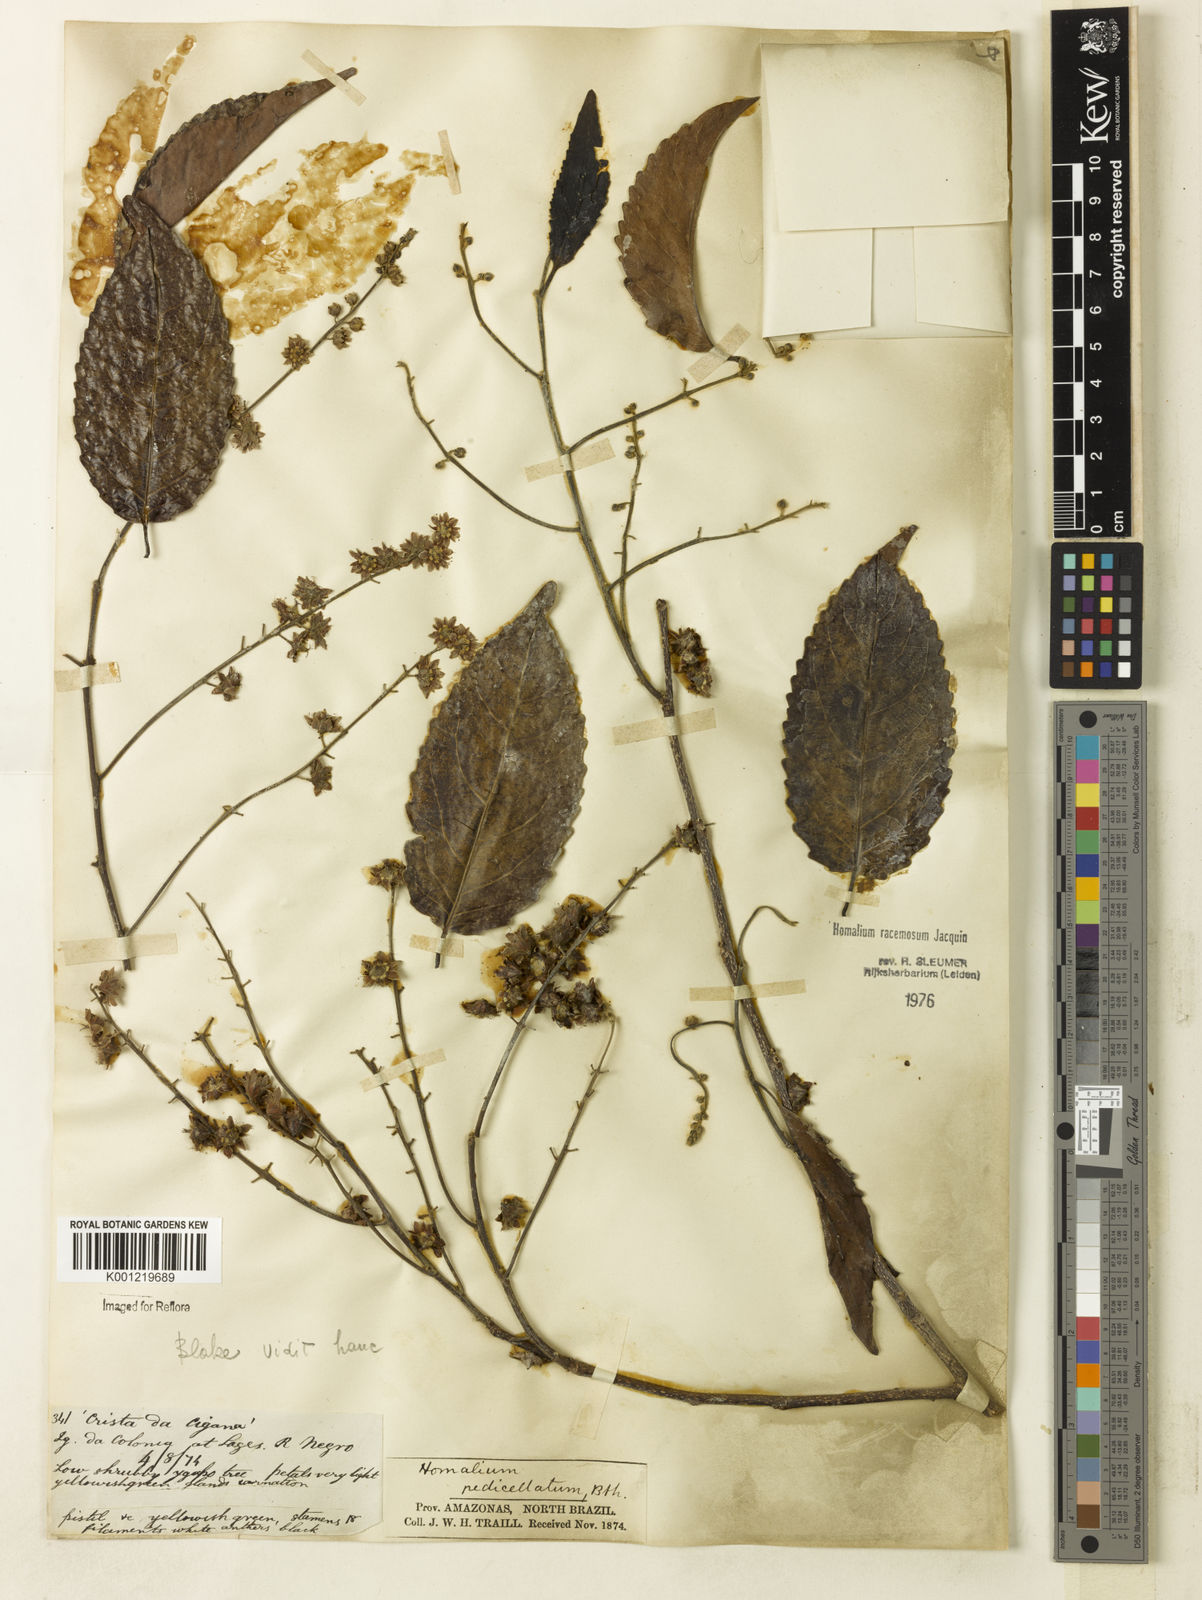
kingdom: Plantae
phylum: Tracheophyta
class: Magnoliopsida
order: Malpighiales
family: Salicaceae
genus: Homalium
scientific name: Homalium racemosum
